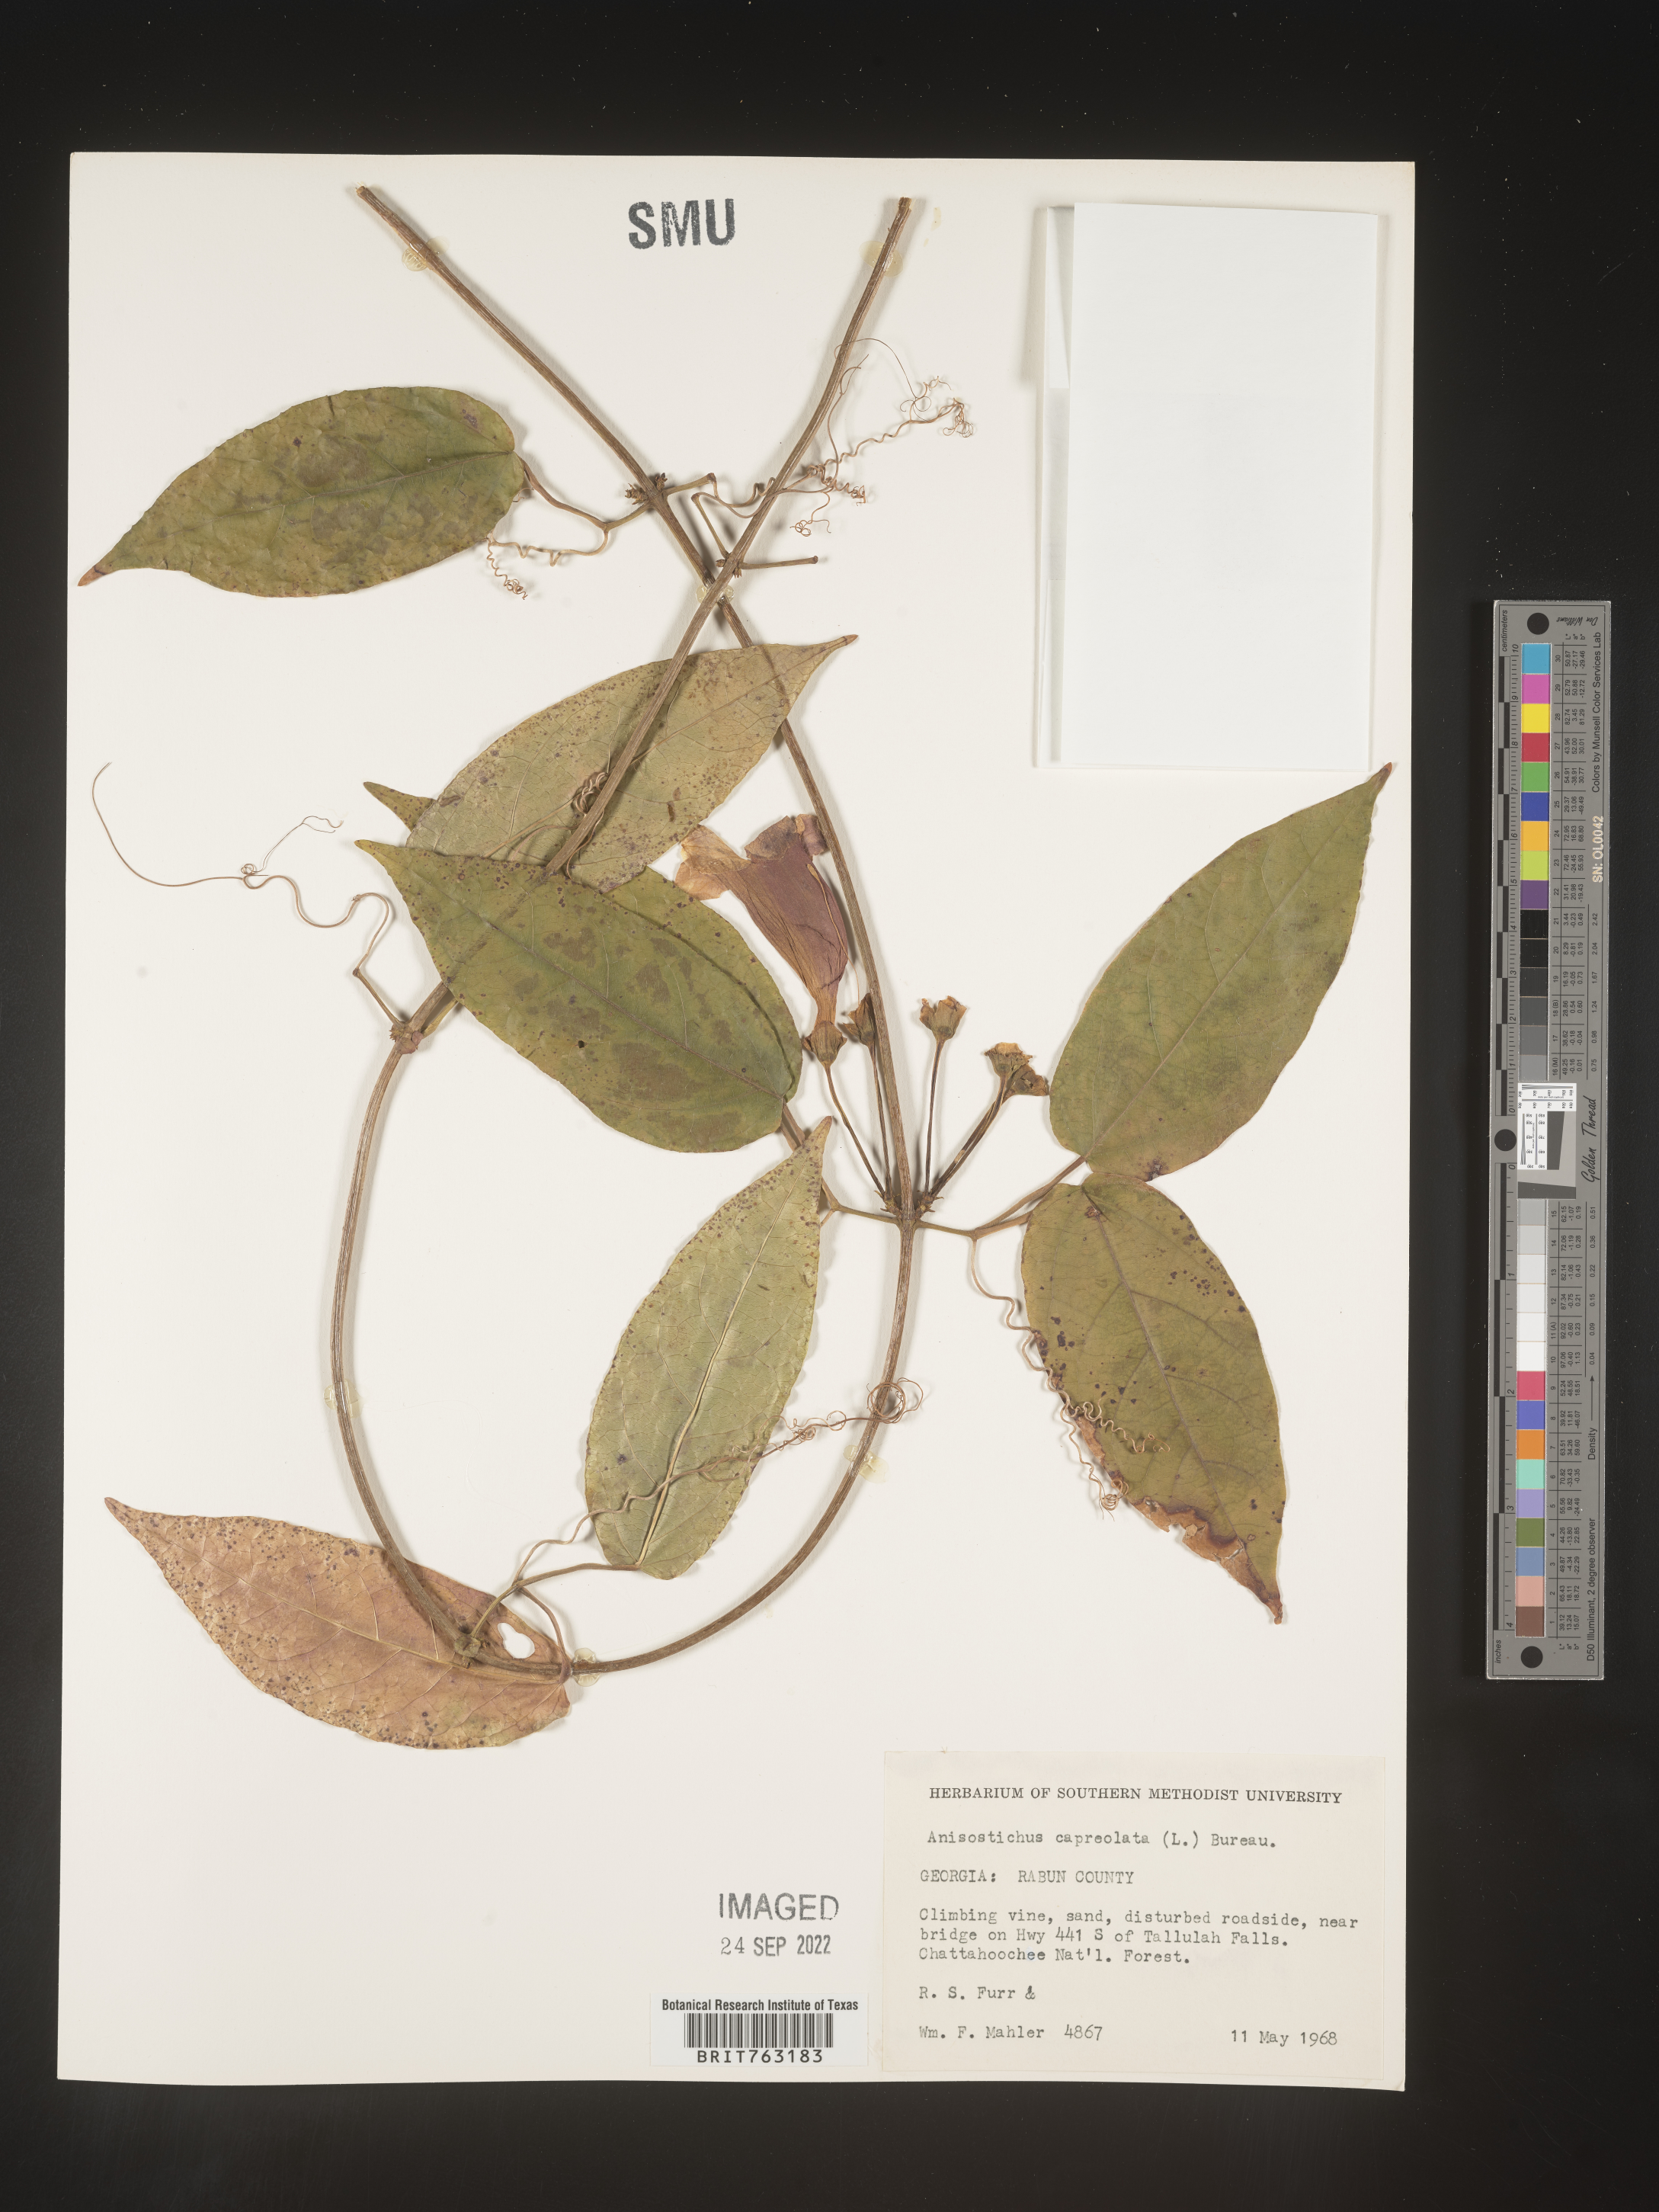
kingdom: Plantae
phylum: Tracheophyta
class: Magnoliopsida
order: Lamiales
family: Bignoniaceae
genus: Bignonia
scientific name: Bignonia capreolata
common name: Crossvine
